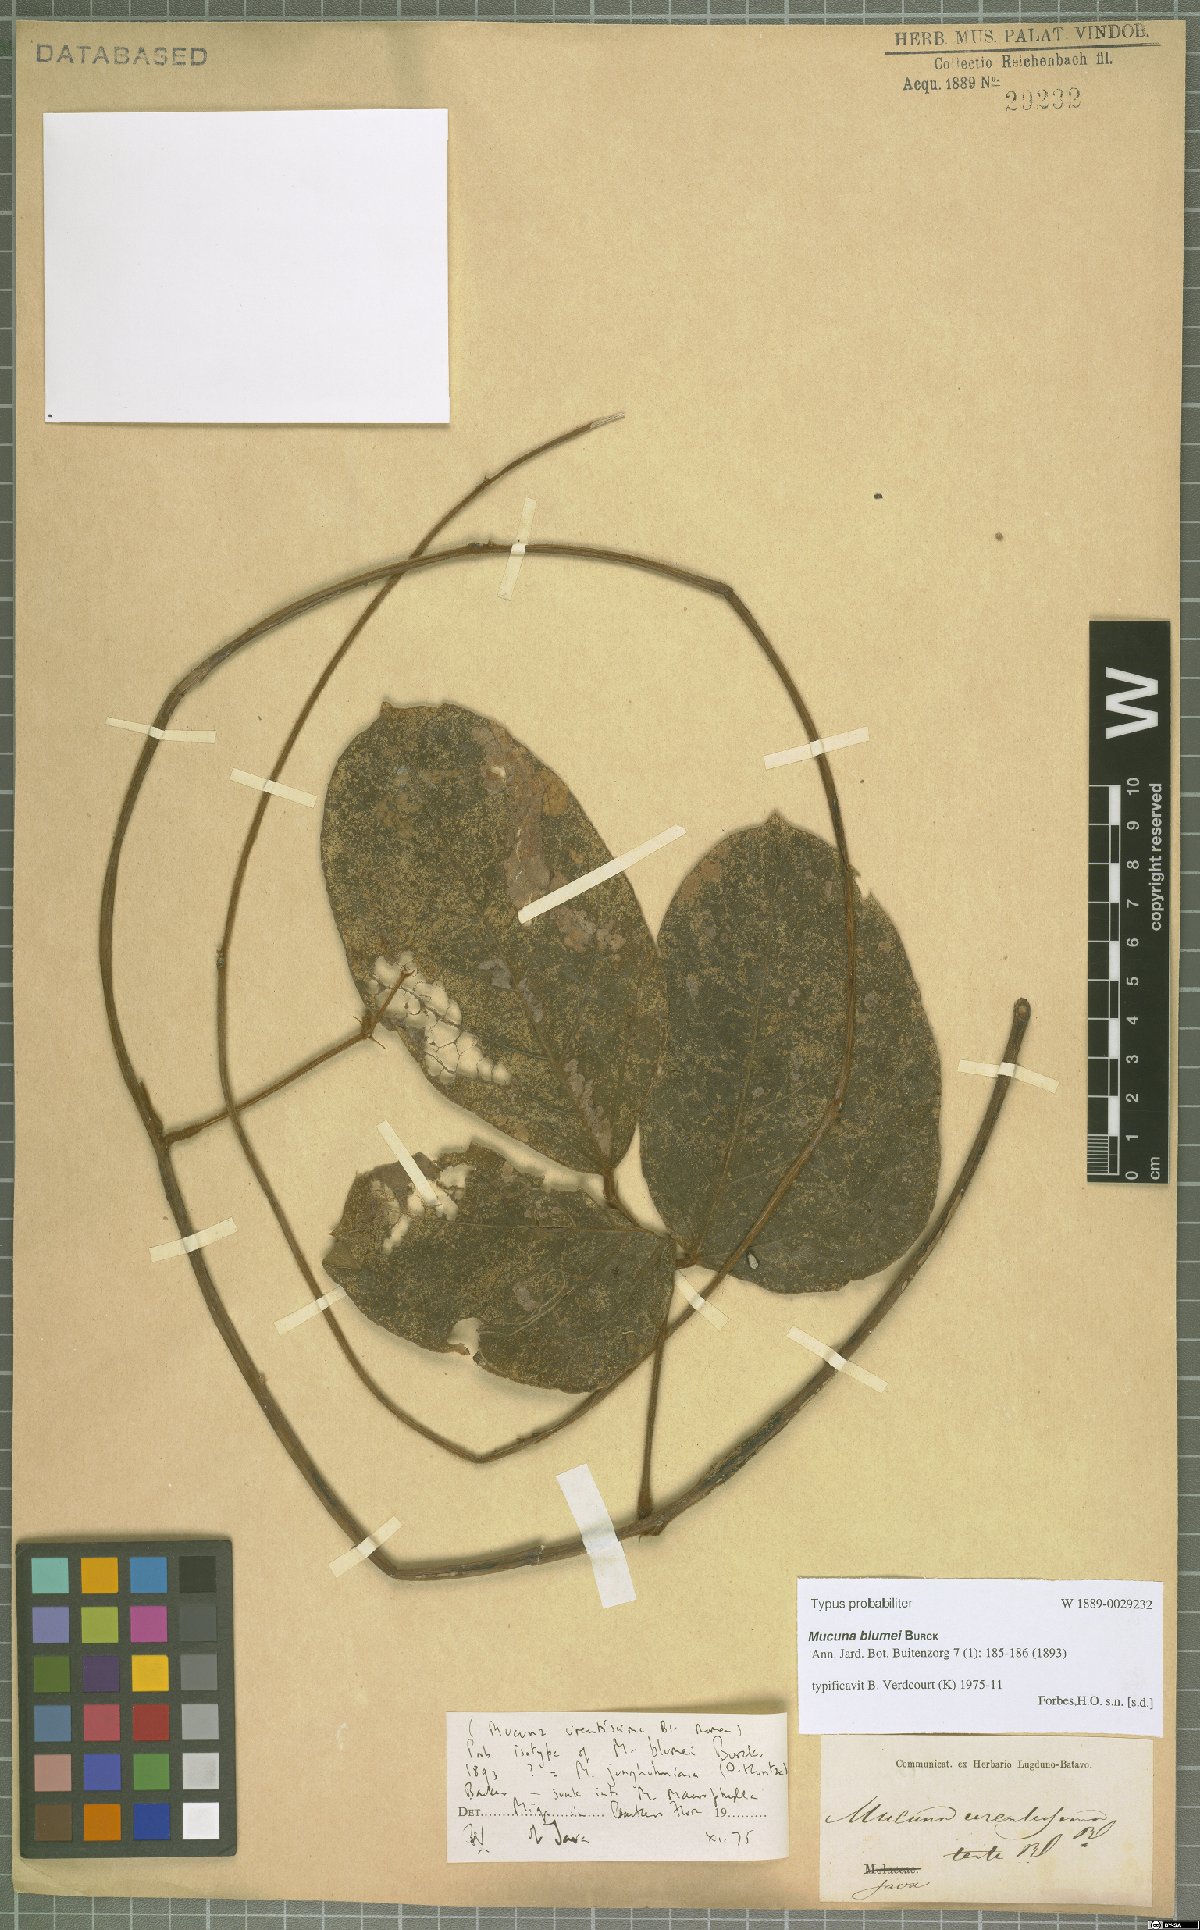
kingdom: Plantae
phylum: Tracheophyta
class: Magnoliopsida
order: Fabales
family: Fabaceae
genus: Mucuna
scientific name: Mucuna macrophylla
